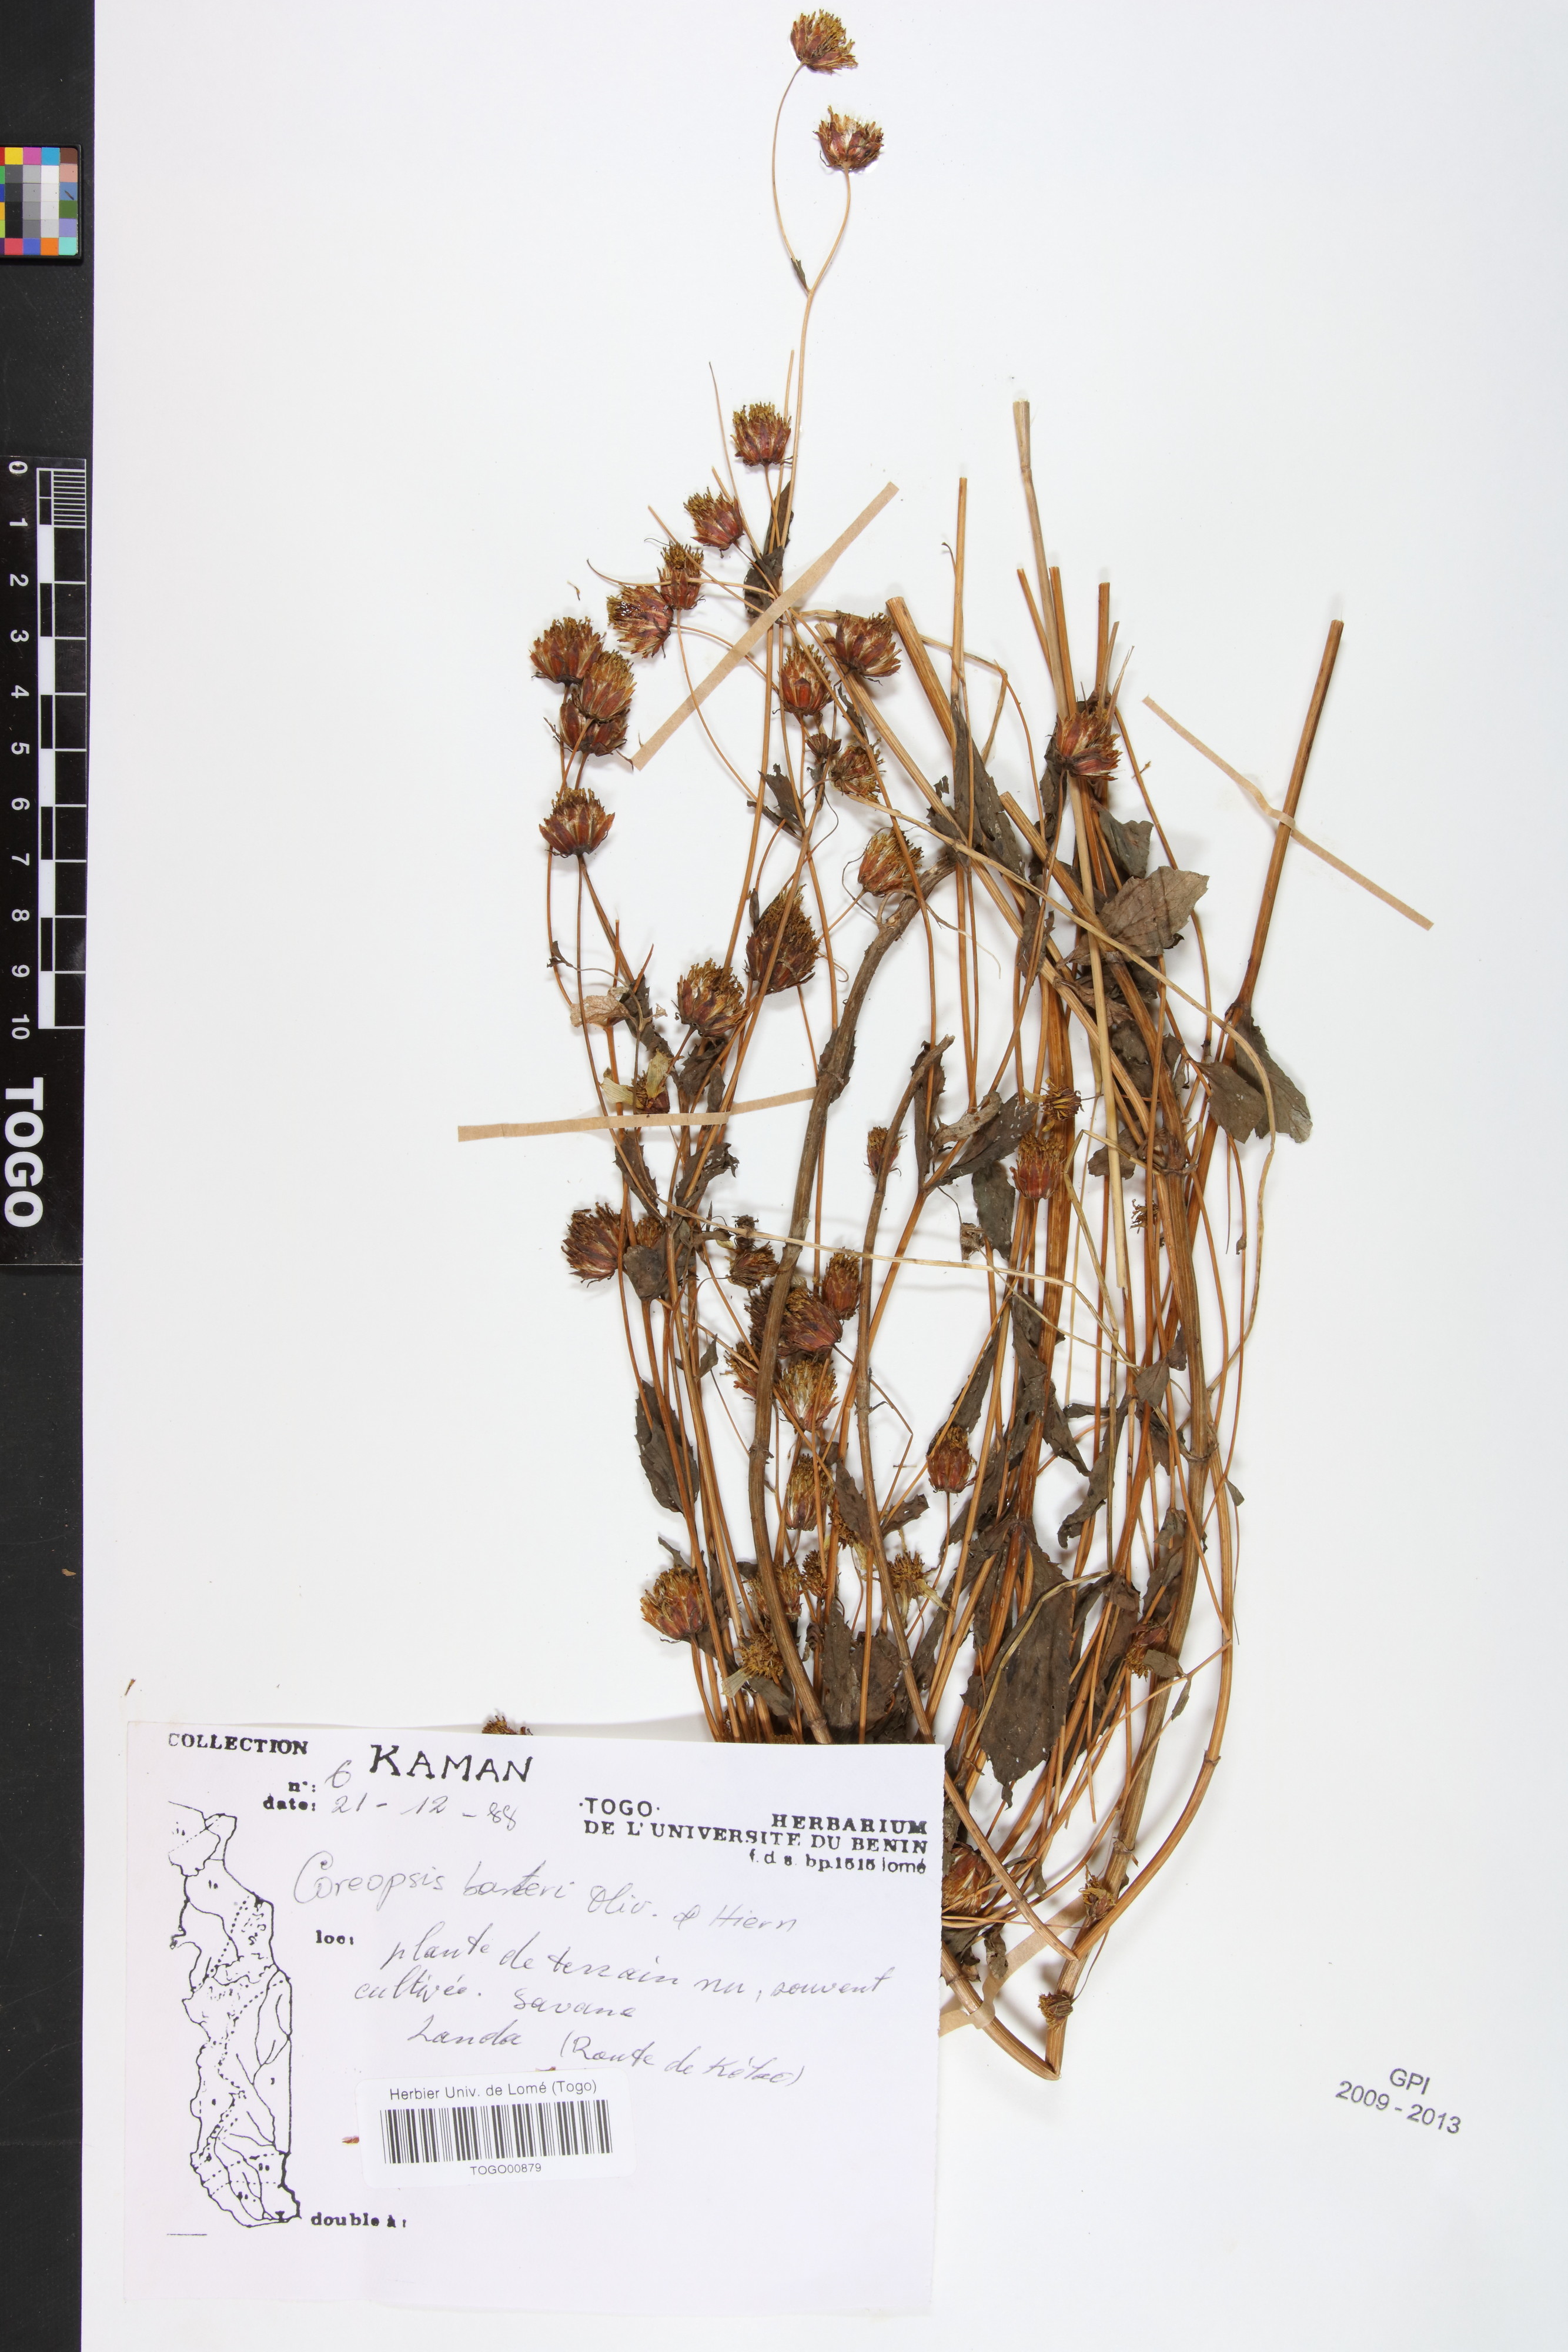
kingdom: Plantae
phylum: Tracheophyta
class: Magnoliopsida
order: Asterales
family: Asteraceae
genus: Bidens
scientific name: Bidens barteri
